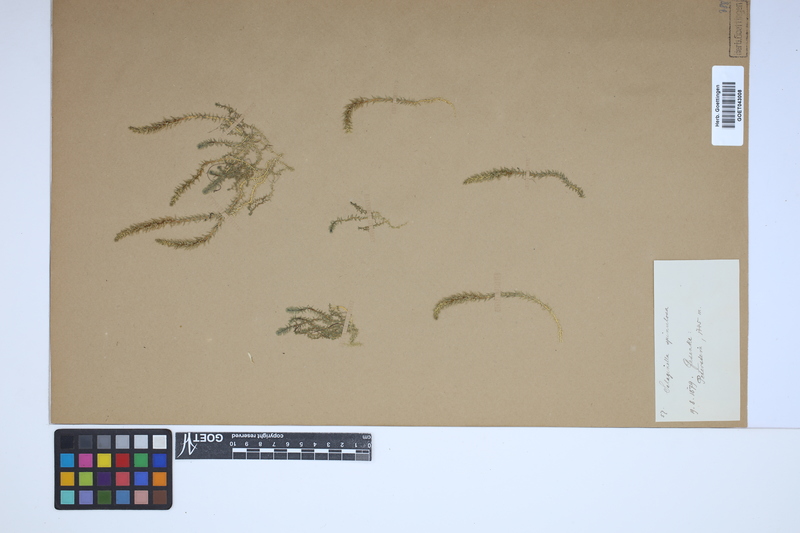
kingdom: Plantae
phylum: Tracheophyta
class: Lycopodiopsida
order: Selaginellales
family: Selaginellaceae
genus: Selaginella
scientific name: Selaginella selaginoides
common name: Prickly mountain-moss
